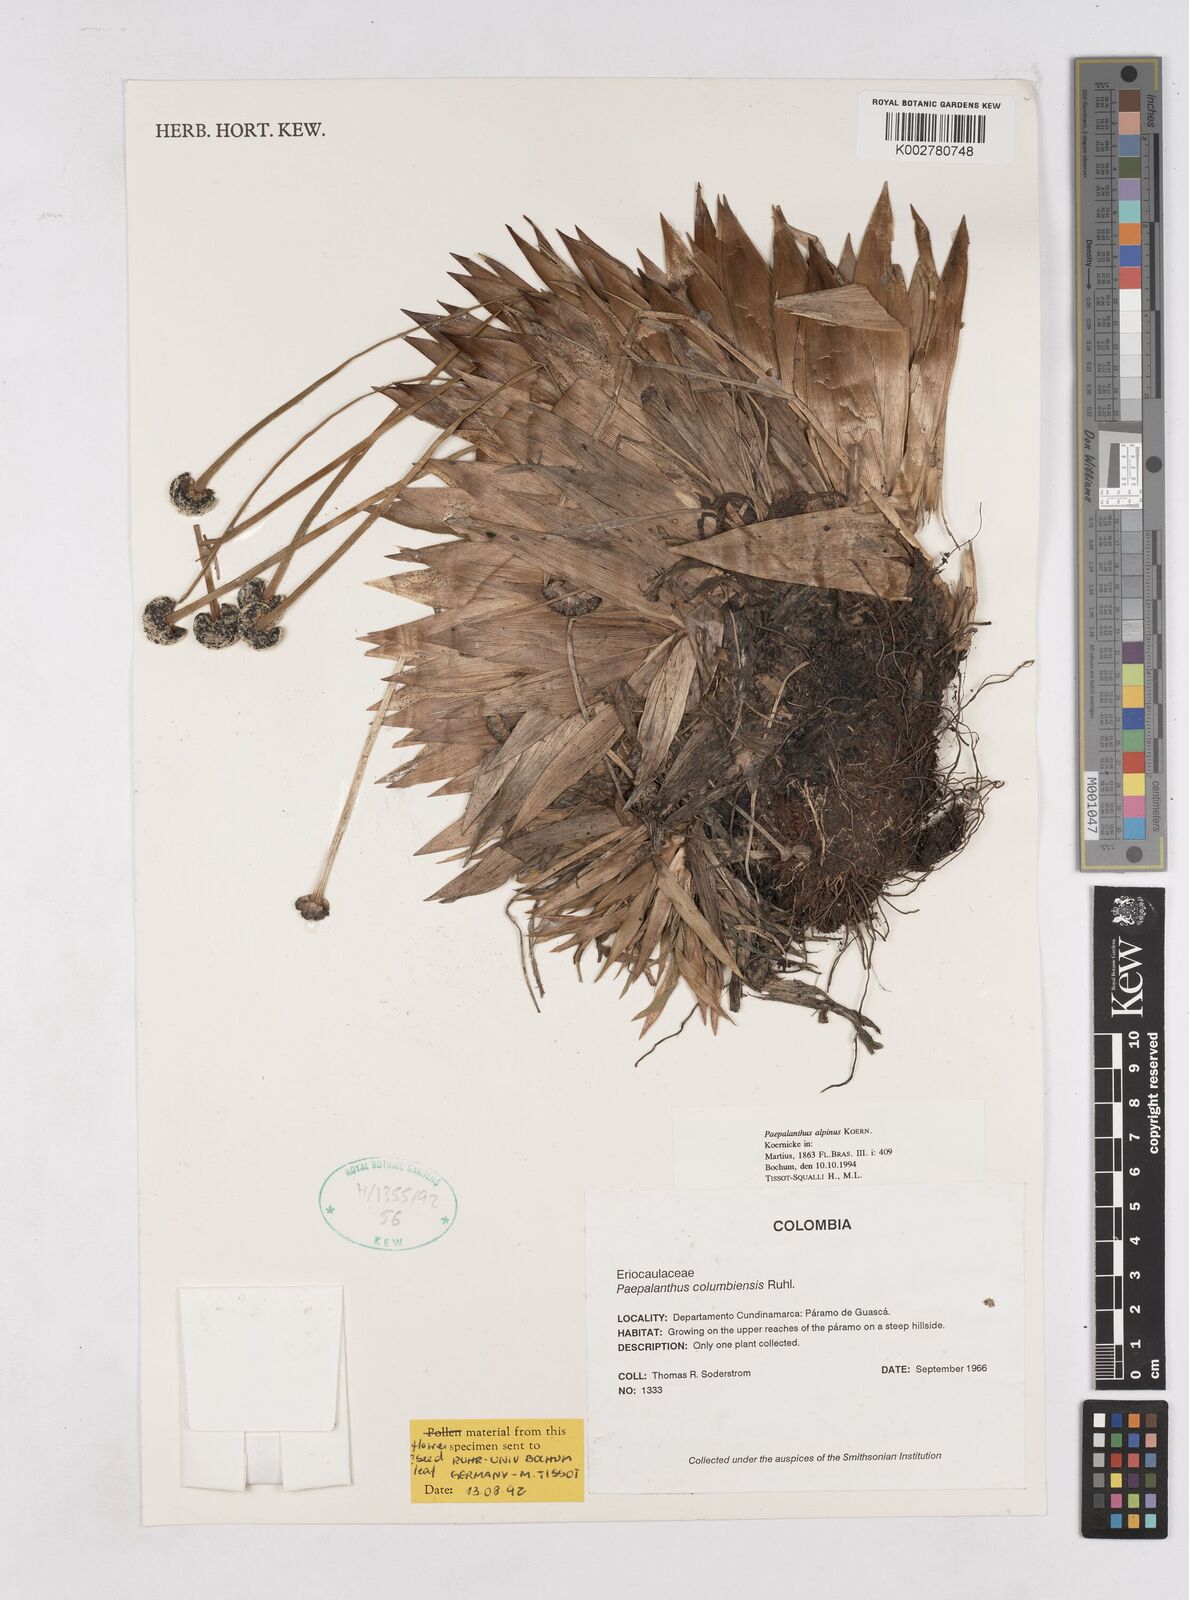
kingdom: Plantae
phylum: Tracheophyta
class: Liliopsida
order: Poales
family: Eriocaulaceae
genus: Paepalanthus
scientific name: Paepalanthus alpinus
